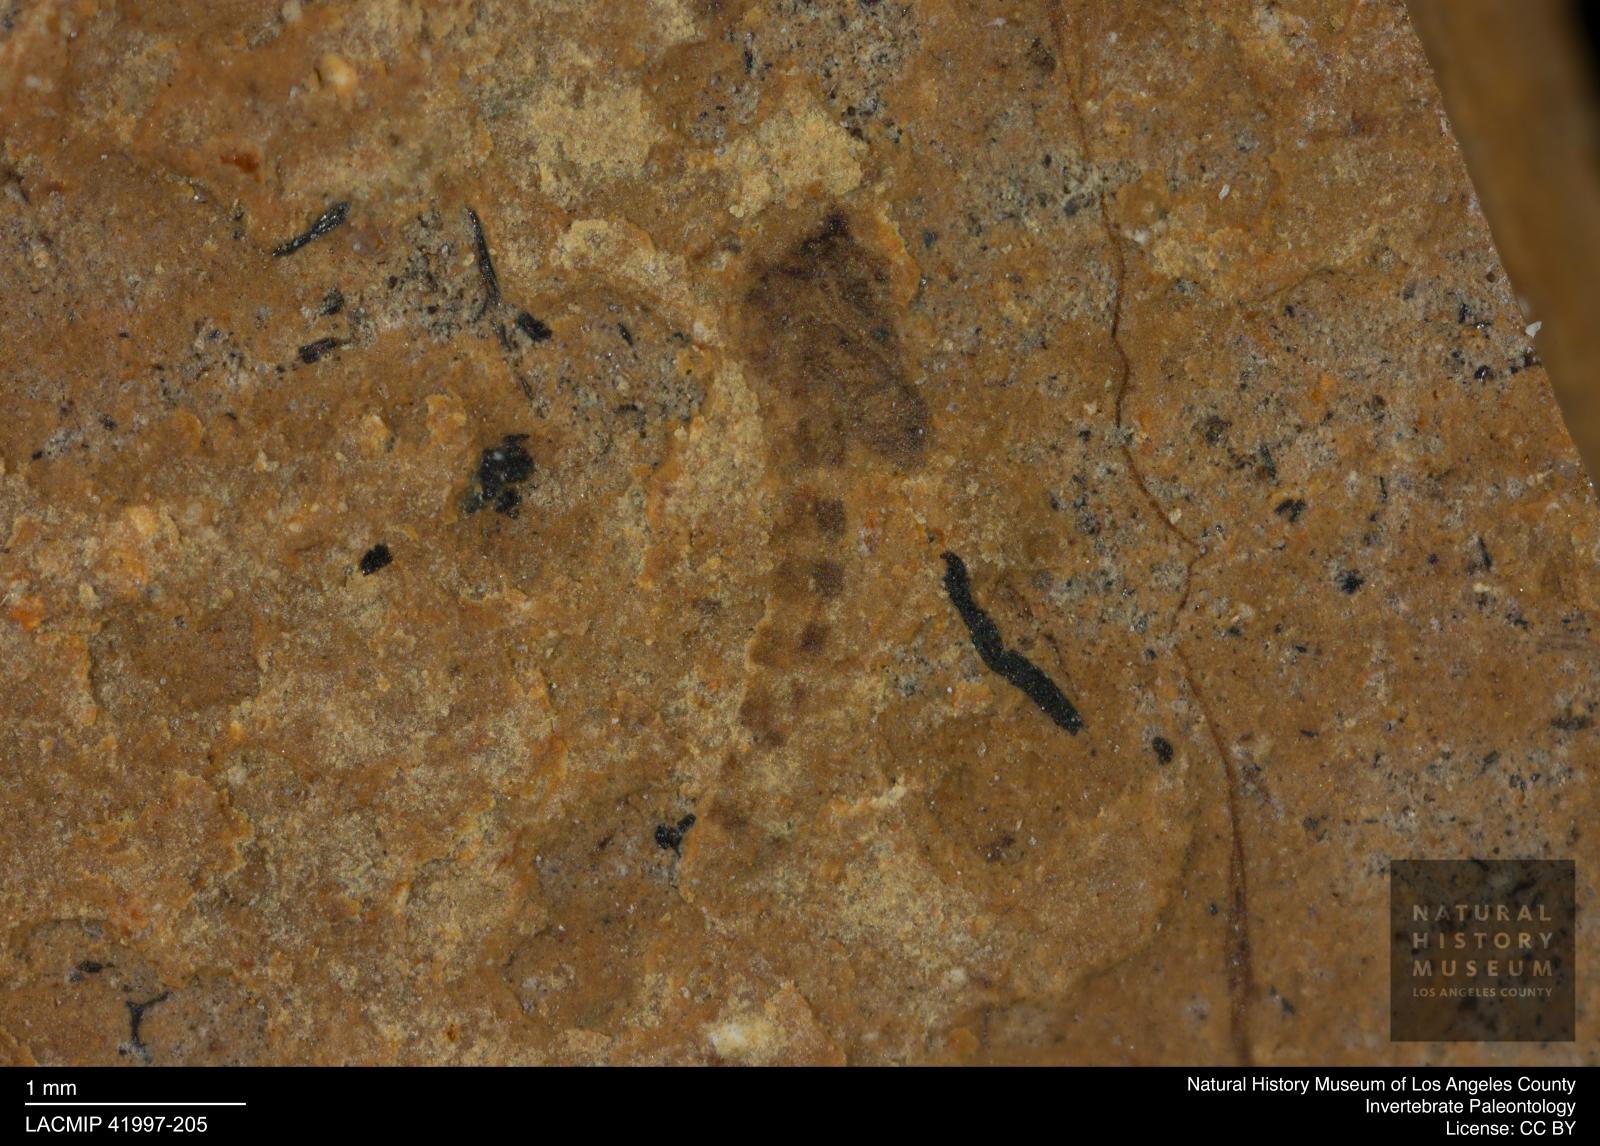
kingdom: Animalia
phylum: Arthropoda
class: Insecta
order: Diptera
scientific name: Diptera
